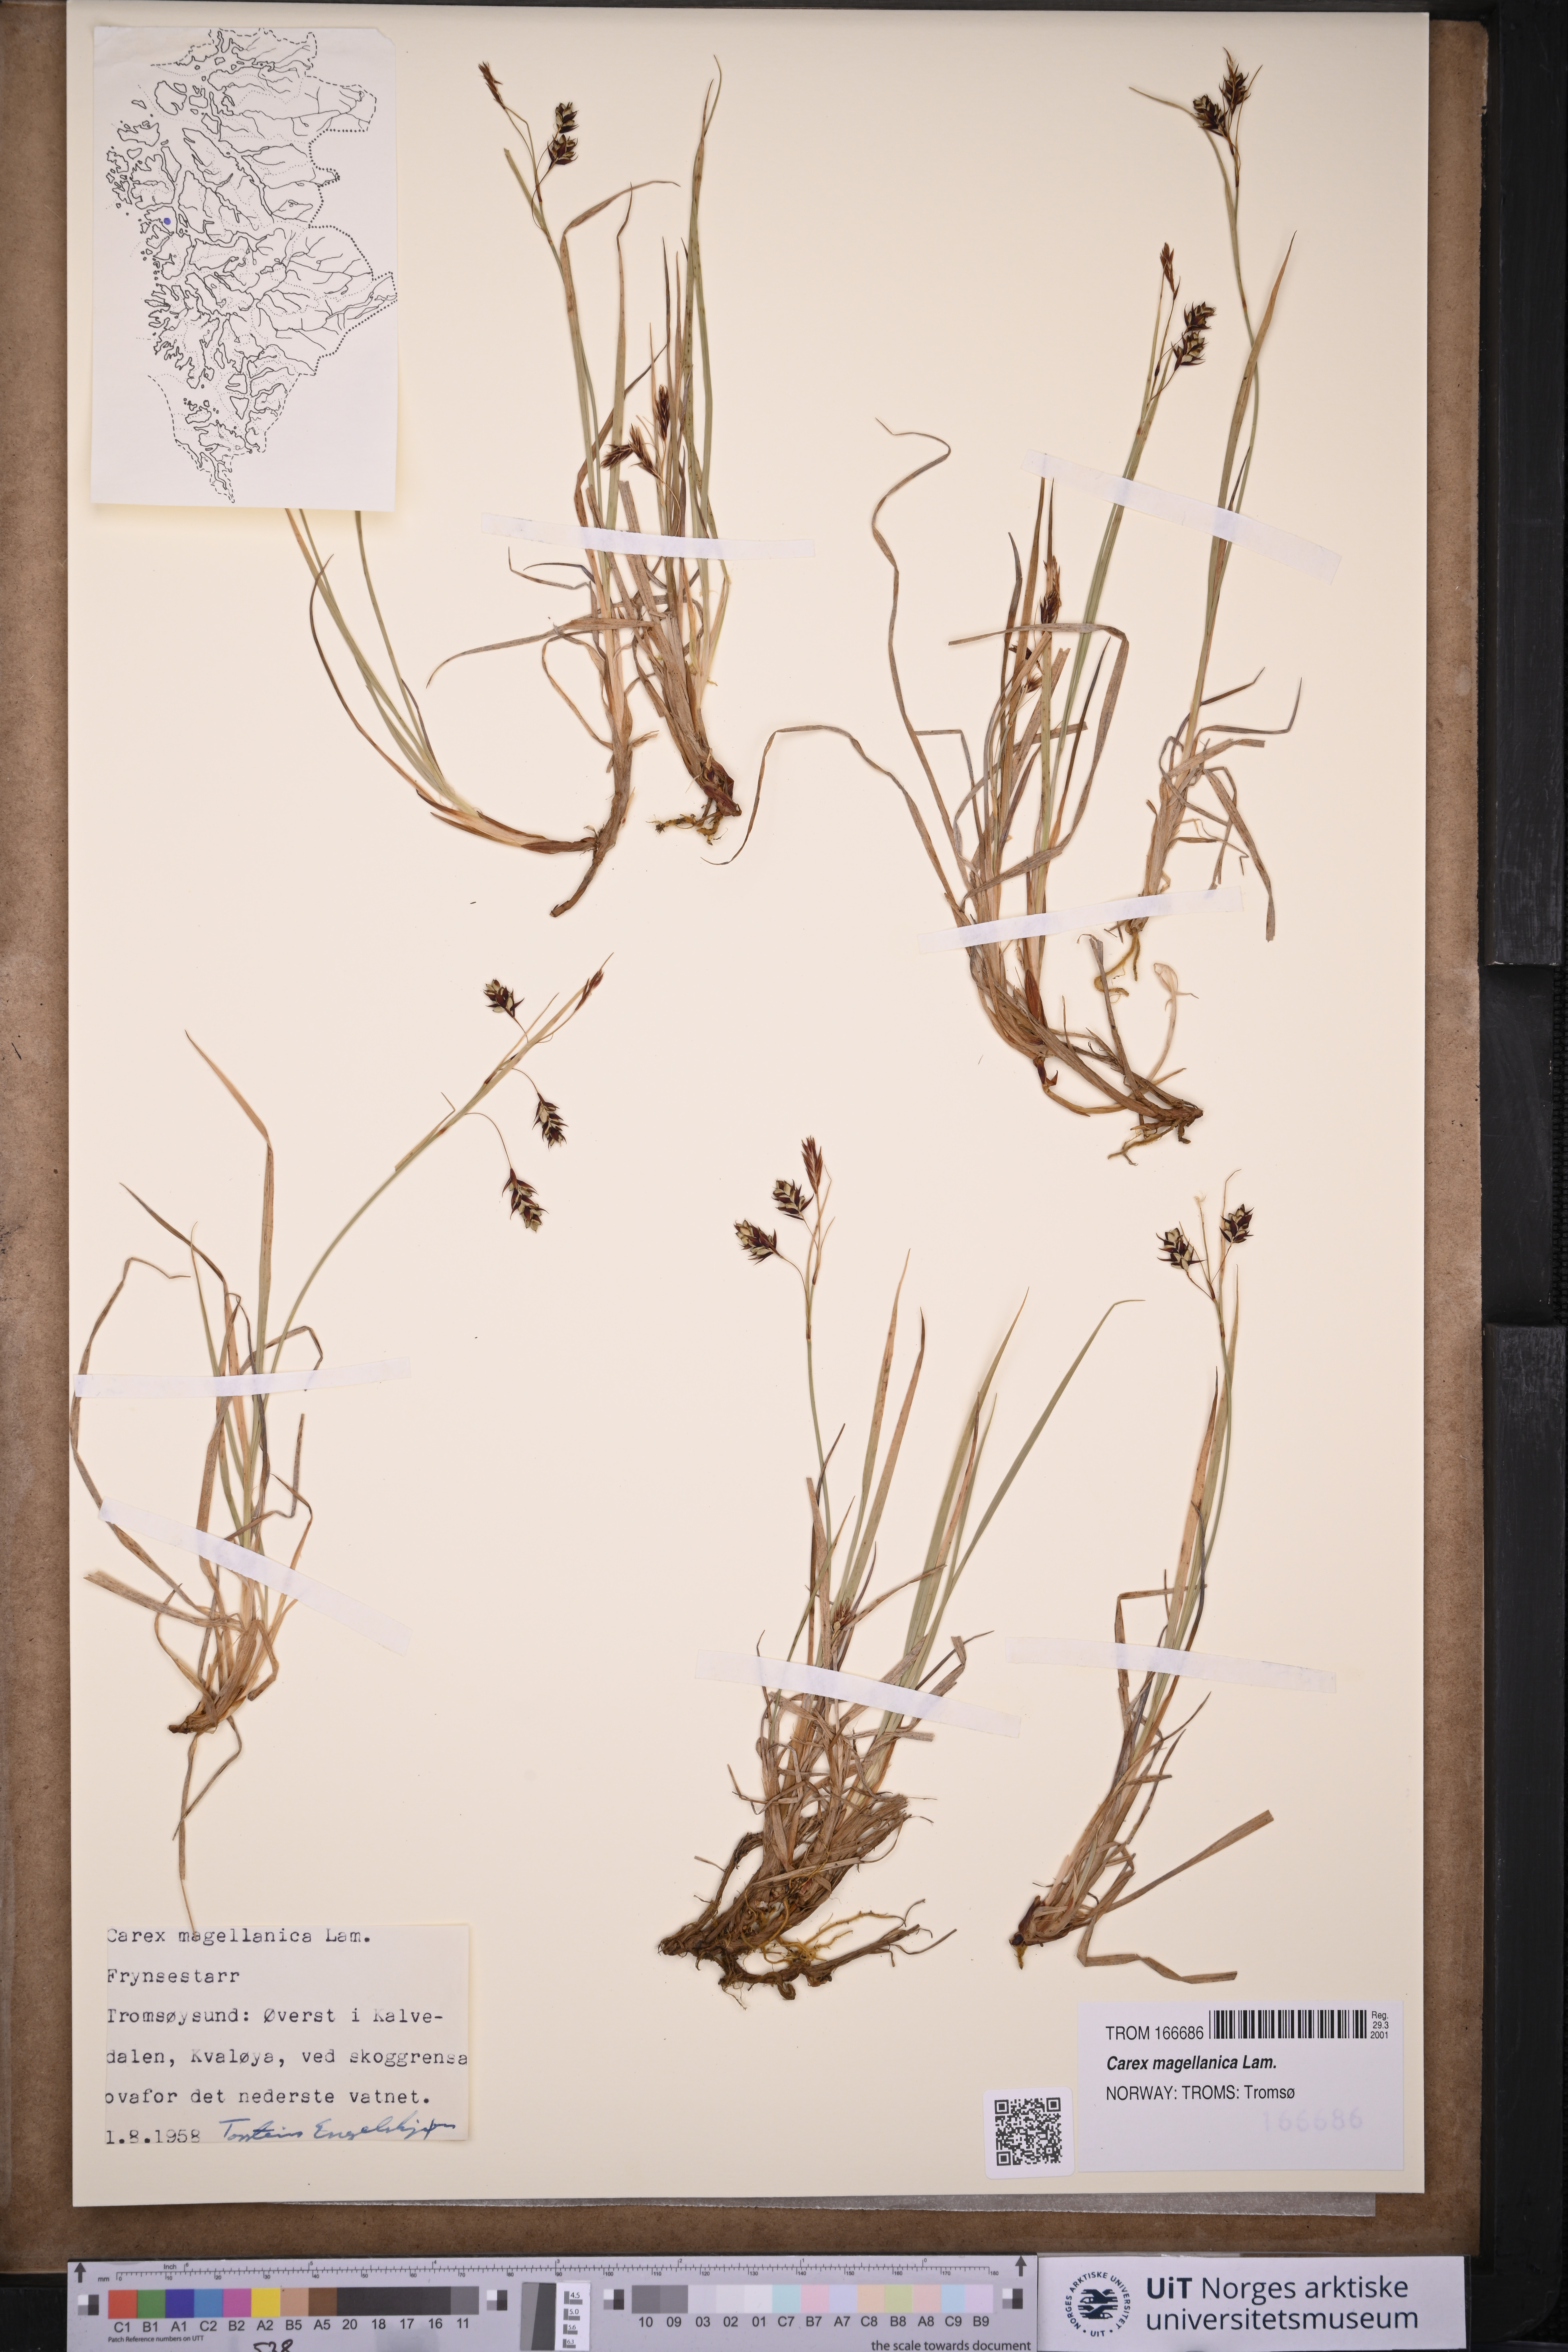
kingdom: Plantae
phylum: Tracheophyta
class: Liliopsida
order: Poales
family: Cyperaceae
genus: Carex
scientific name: Carex magellanica
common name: Bog sedge
